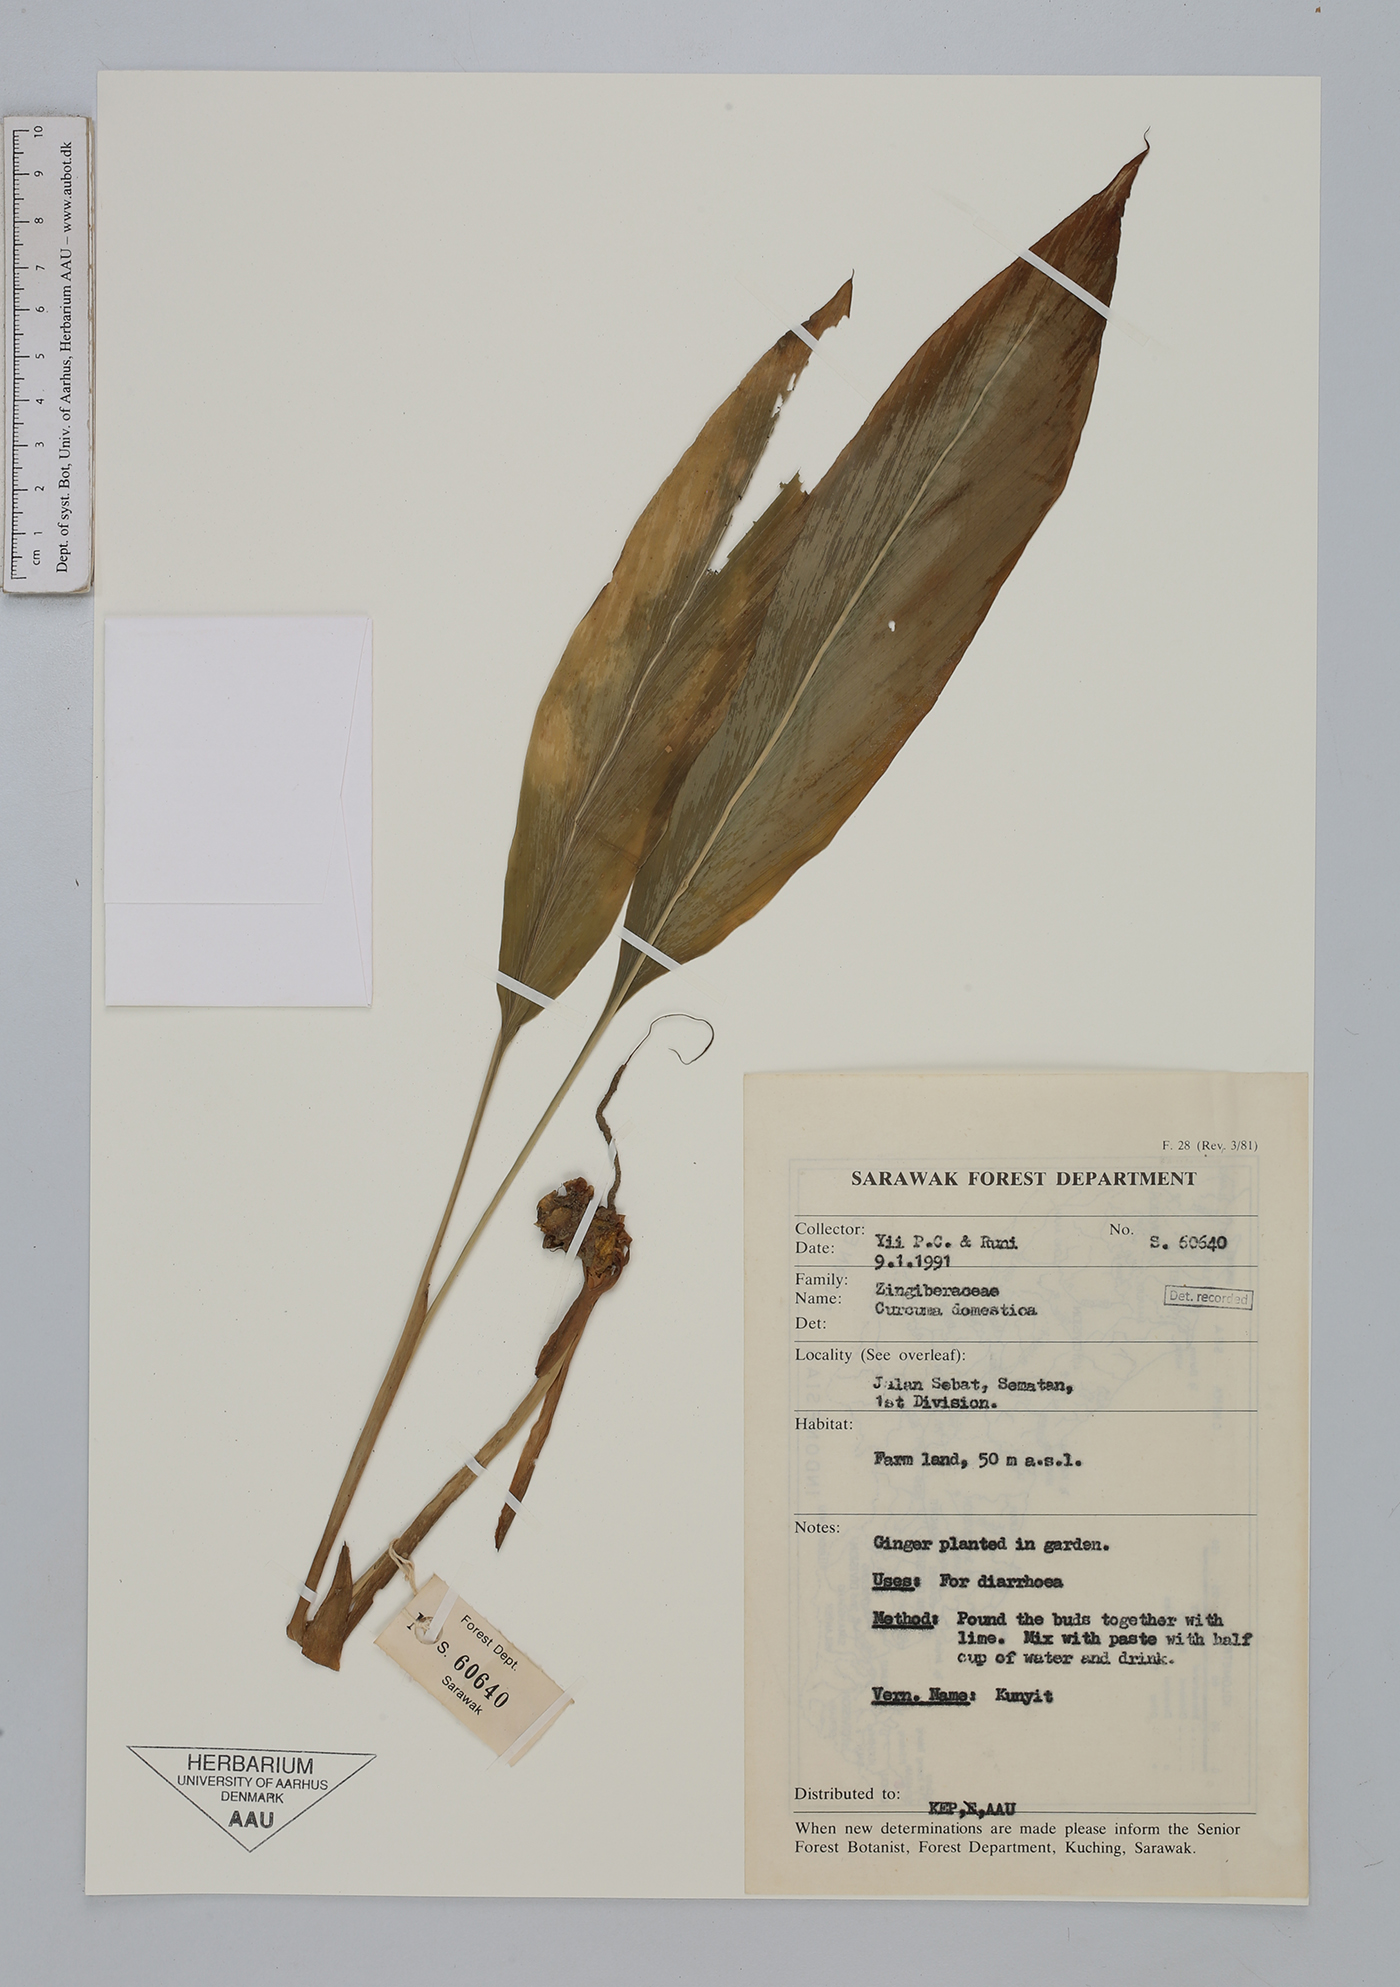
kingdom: Plantae
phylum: Tracheophyta
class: Liliopsida
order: Zingiberales
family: Zingiberaceae
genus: Curcuma
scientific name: Curcuma
